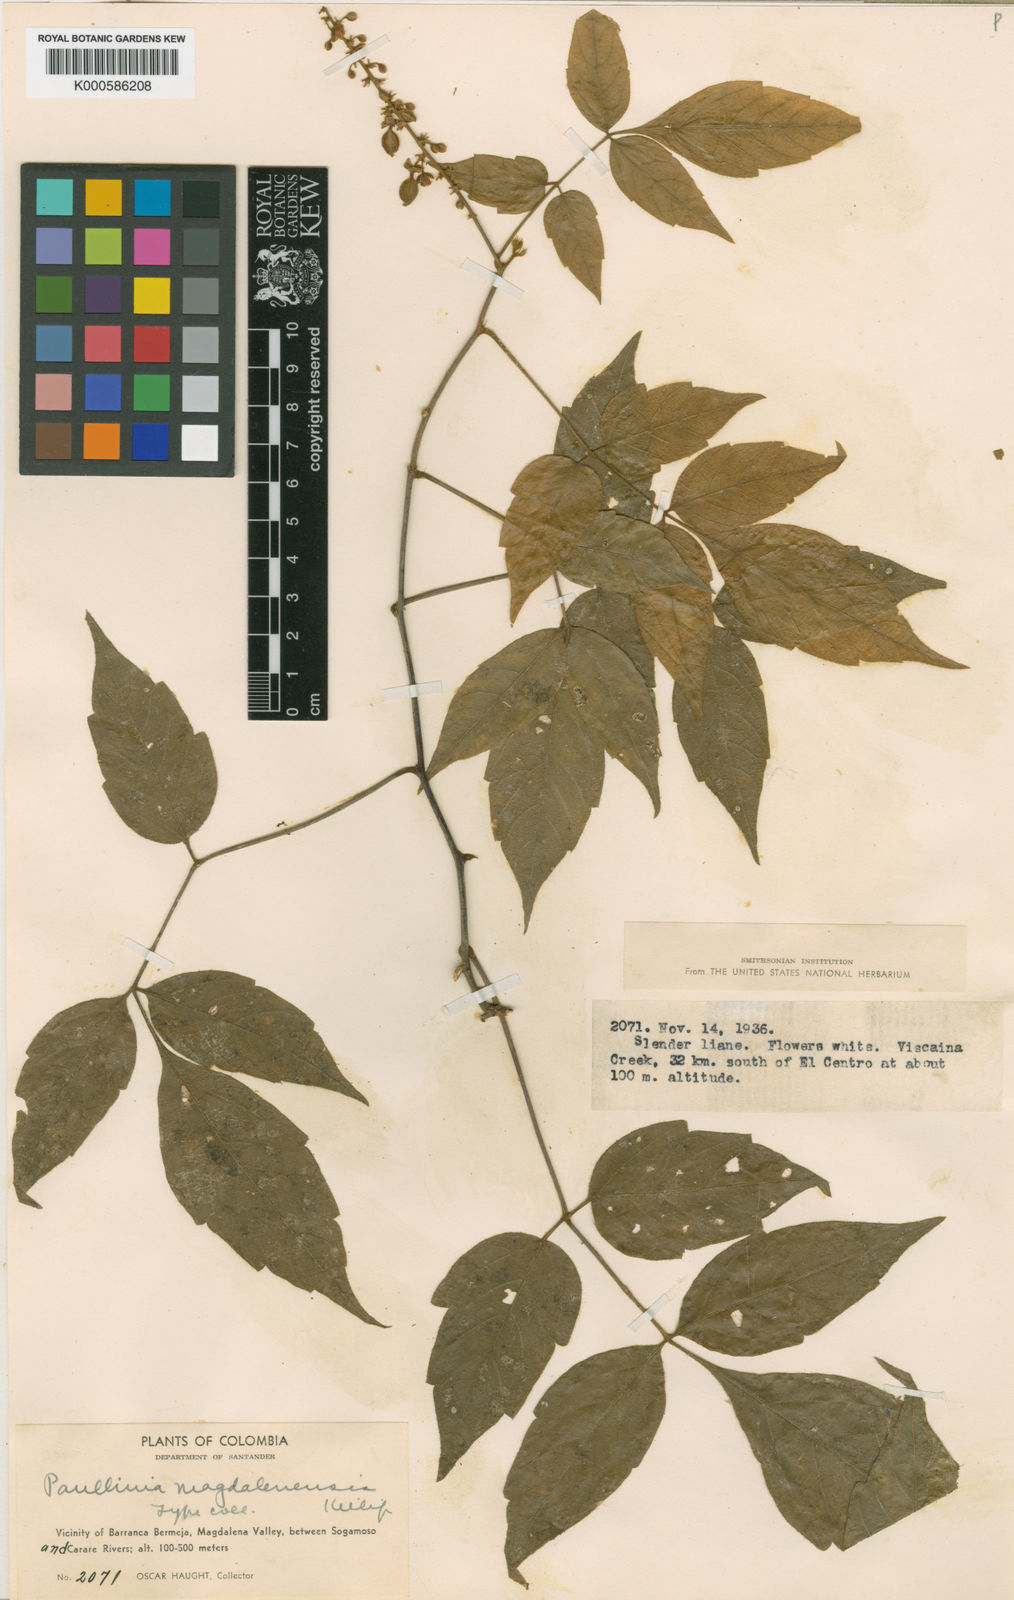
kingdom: Plantae
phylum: Tracheophyta
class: Magnoliopsida
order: Sapindales
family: Sapindaceae
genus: Paullinia
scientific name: Paullinia
